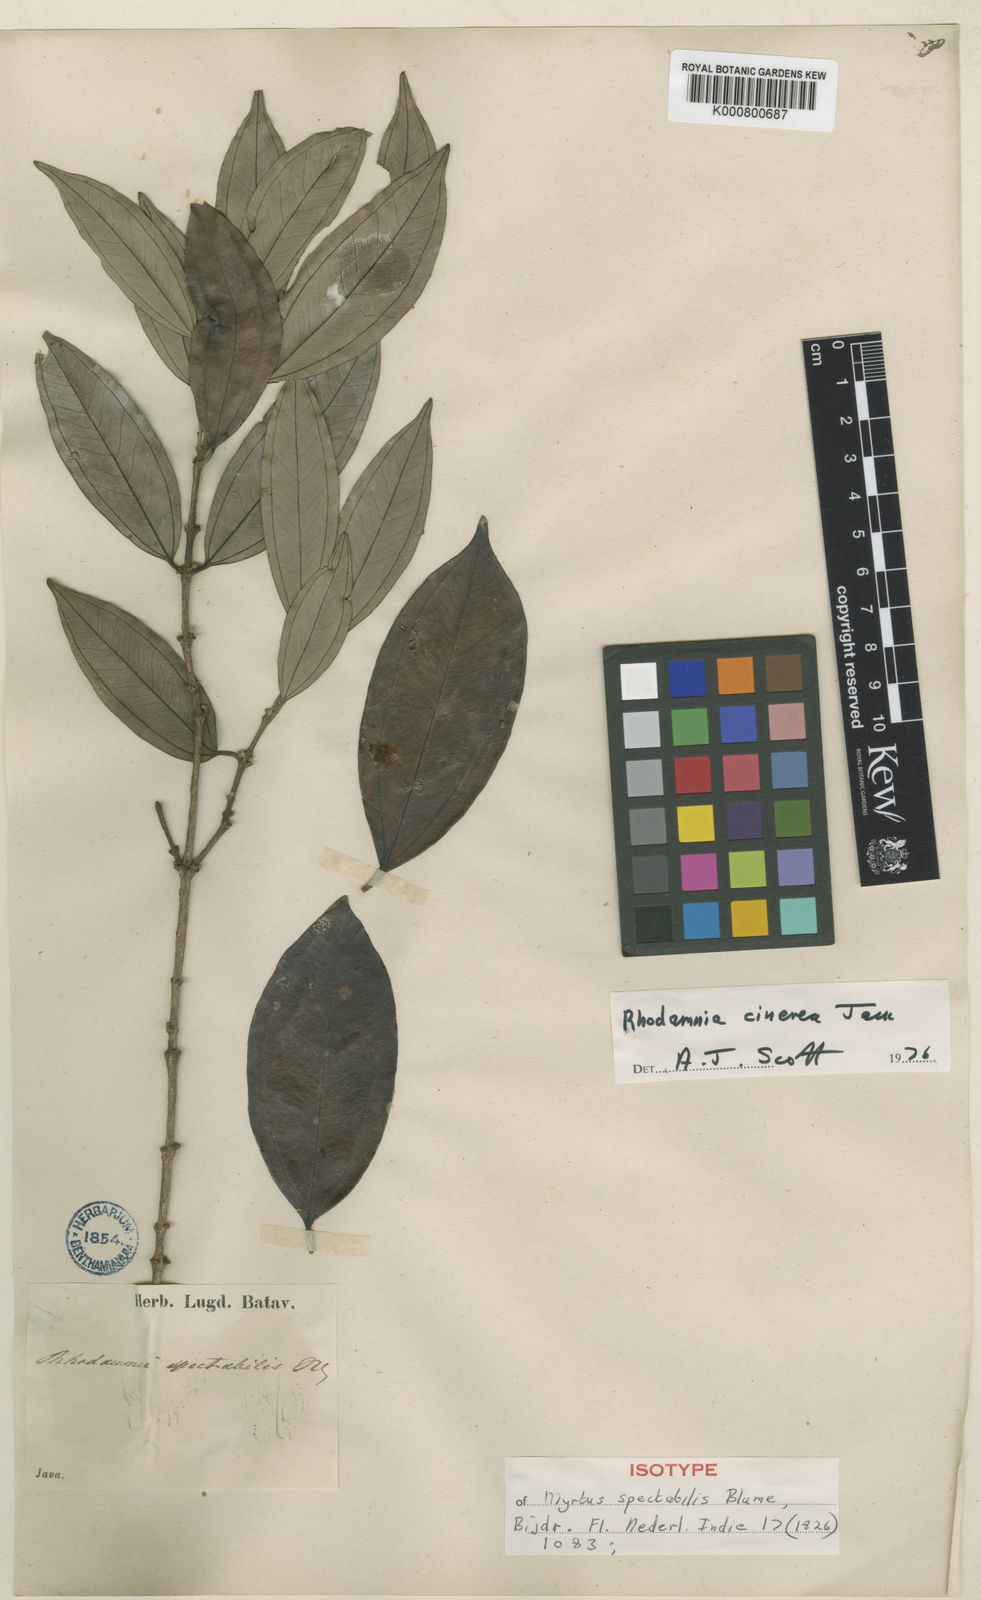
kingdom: Plantae
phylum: Tracheophyta
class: Magnoliopsida
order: Myrtales
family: Myrtaceae
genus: Rhodamnia
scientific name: Rhodamnia cinerea
